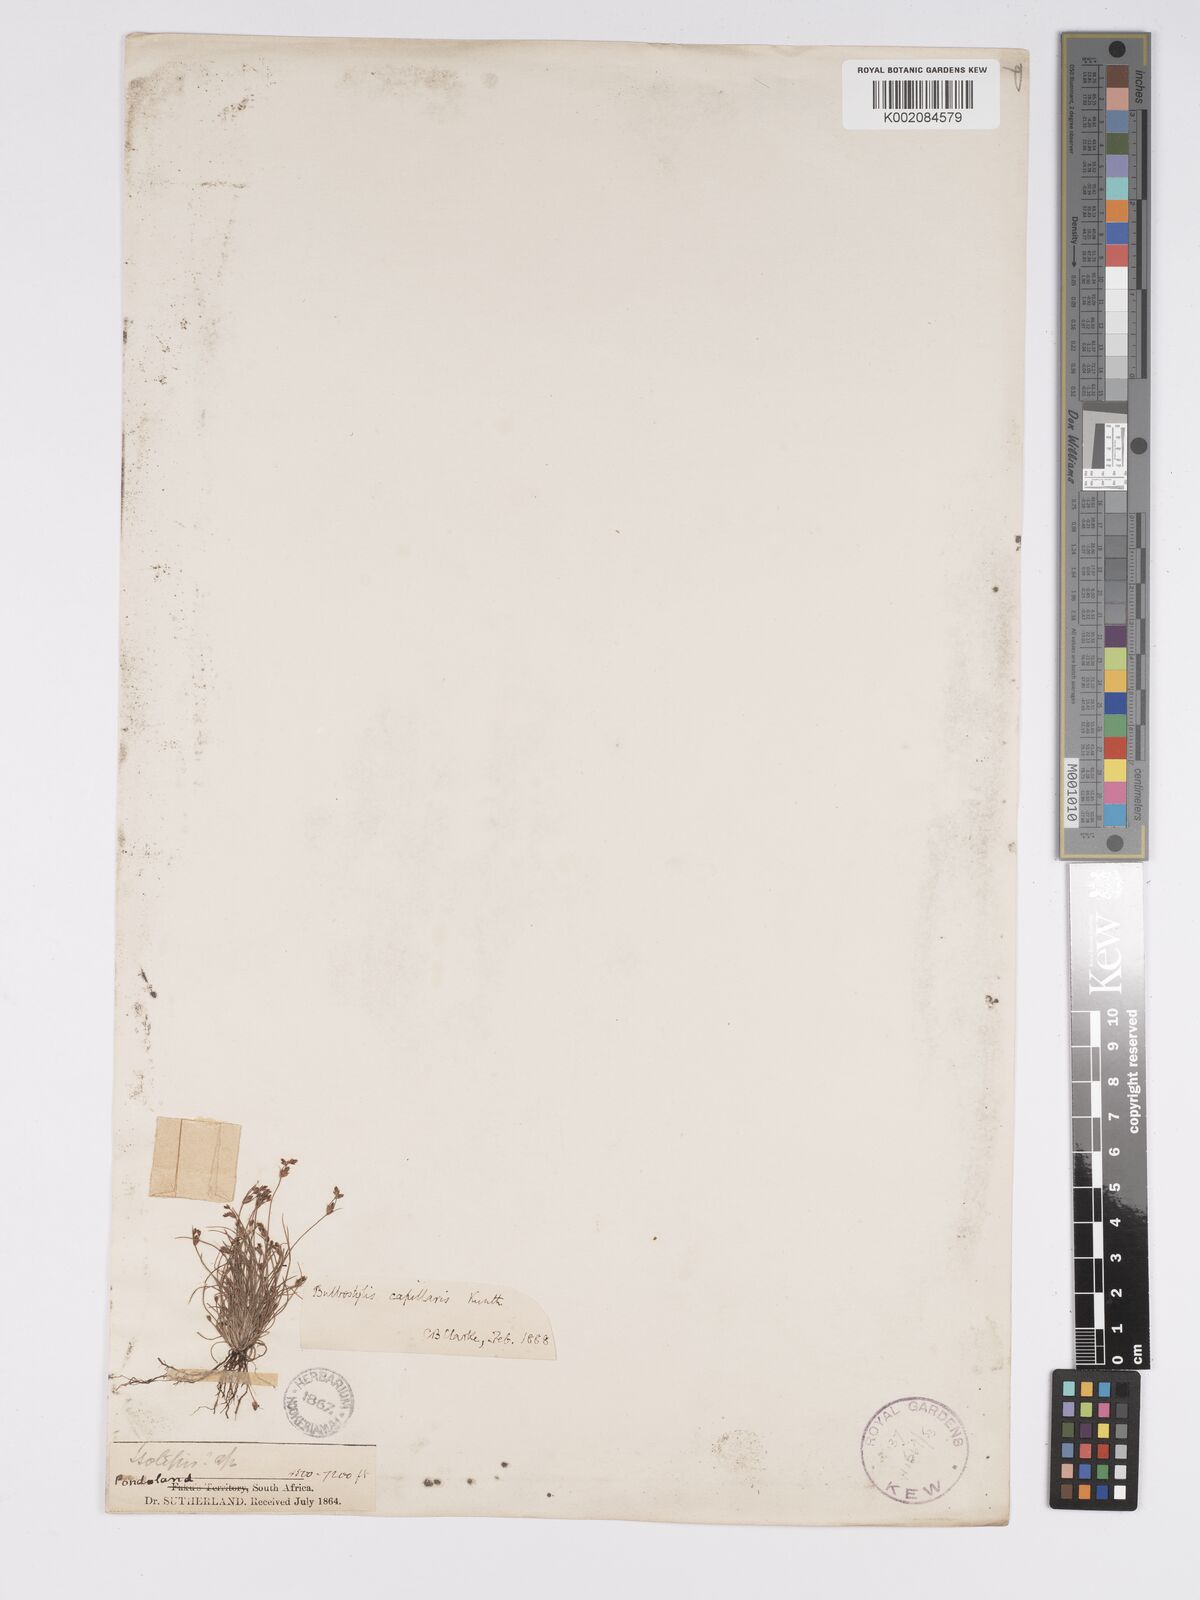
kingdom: Plantae
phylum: Tracheophyta
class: Liliopsida
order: Poales
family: Cyperaceae
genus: Bulbostylis
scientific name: Bulbostylis capillaris
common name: Densetuft hairsedge
